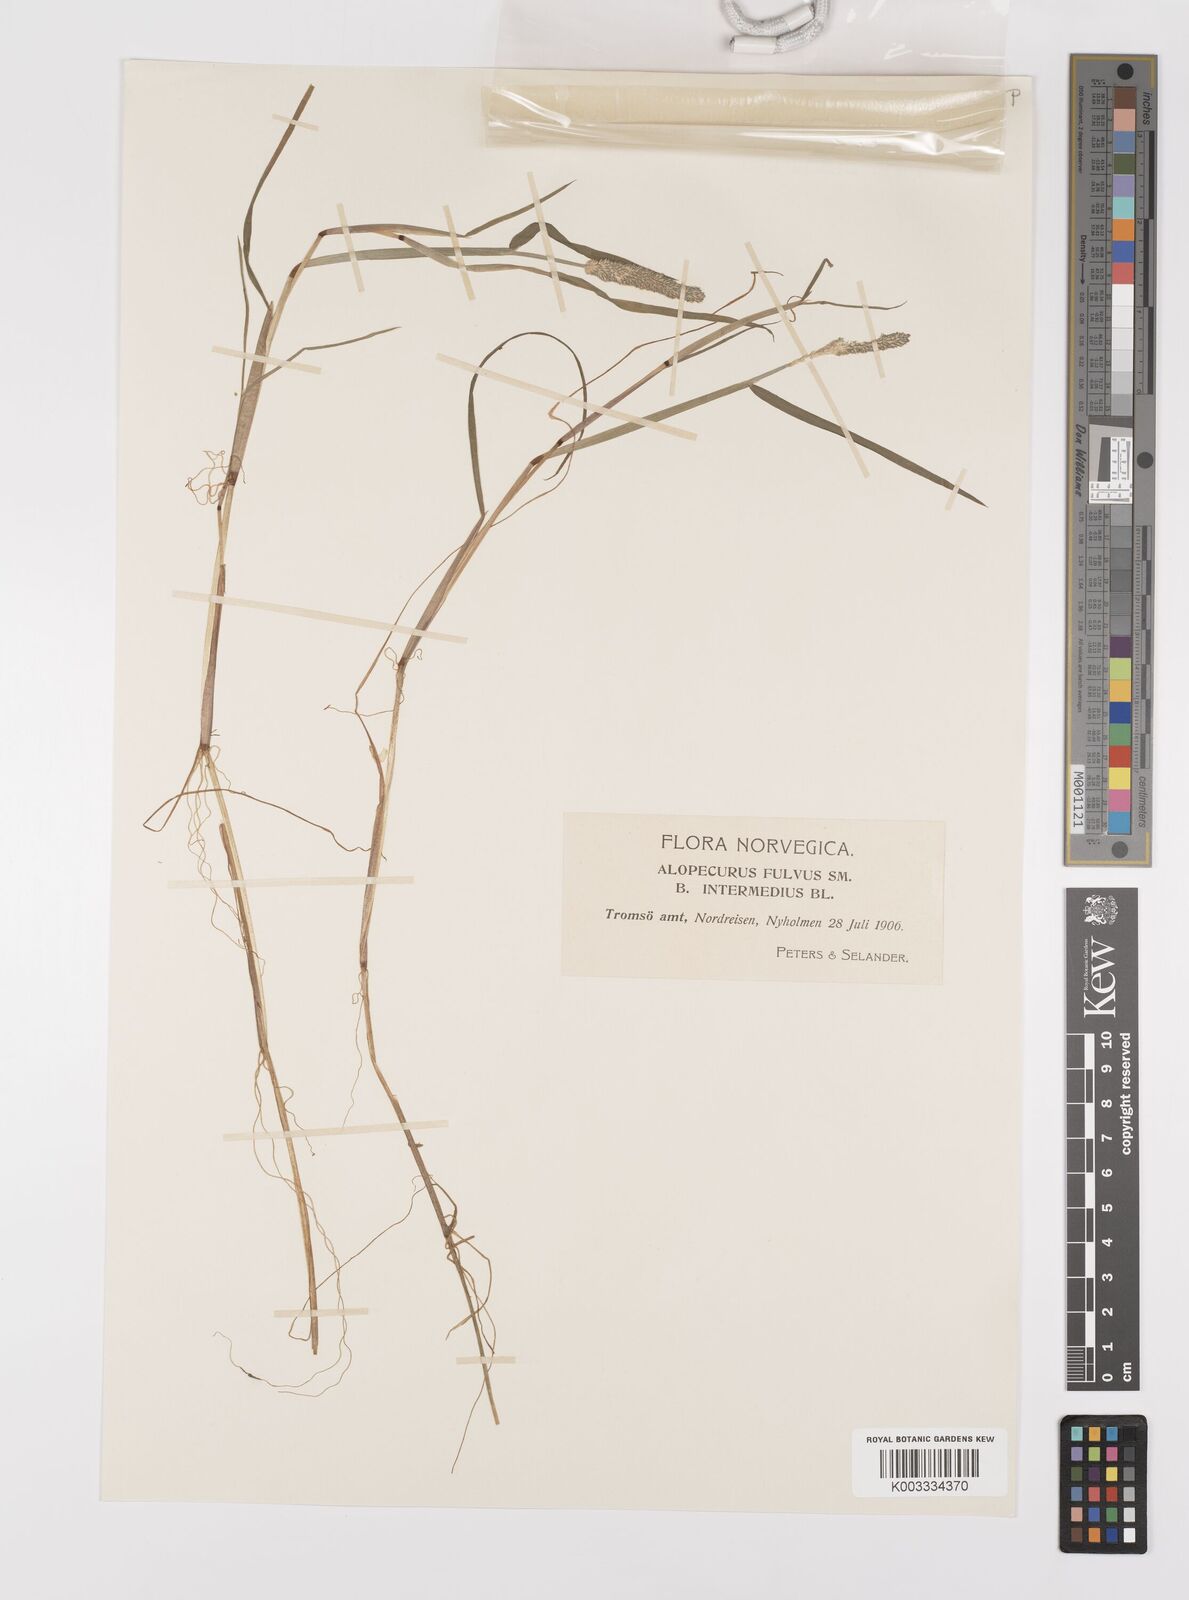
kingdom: Plantae
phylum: Tracheophyta
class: Liliopsida
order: Poales
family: Poaceae
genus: Alopecurus
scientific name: Alopecurus aequalis
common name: Orange foxtail
